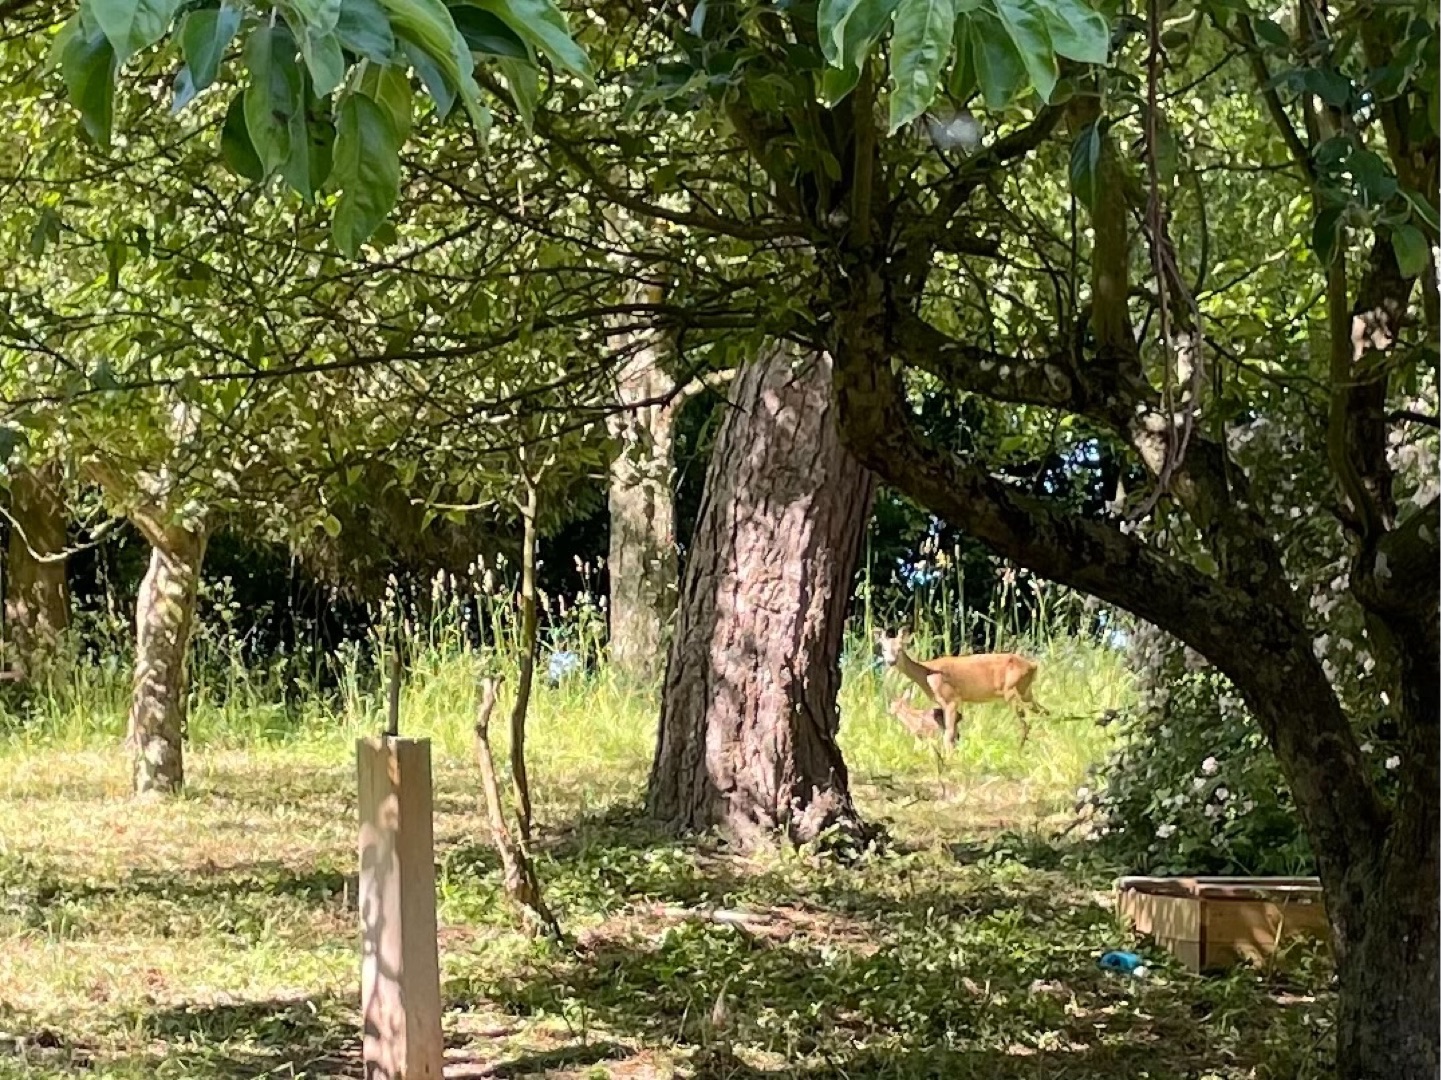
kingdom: Animalia
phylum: Chordata
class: Mammalia
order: Artiodactyla
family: Cervidae
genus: Capreolus
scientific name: Capreolus capreolus
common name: Rådyr
